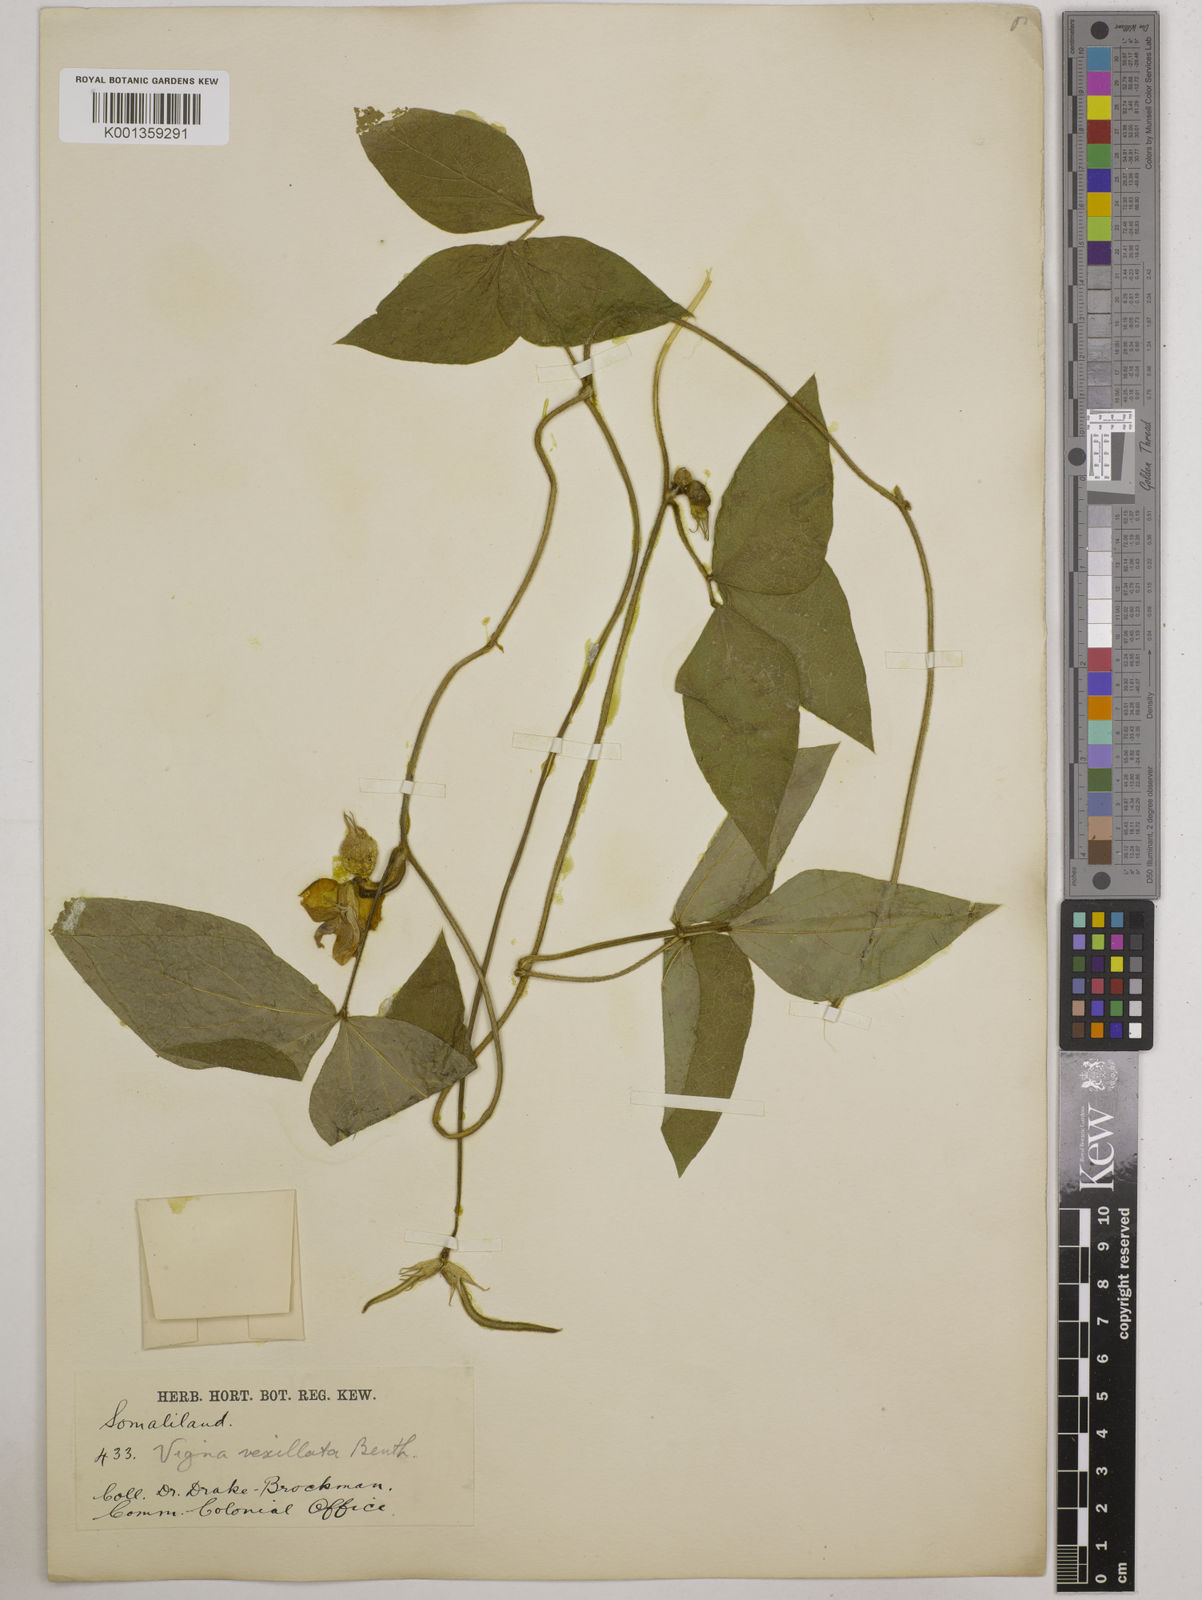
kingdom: Plantae
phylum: Tracheophyta
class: Magnoliopsida
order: Fabales
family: Fabaceae
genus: Vigna
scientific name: Vigna vexillata
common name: Zombi pea
